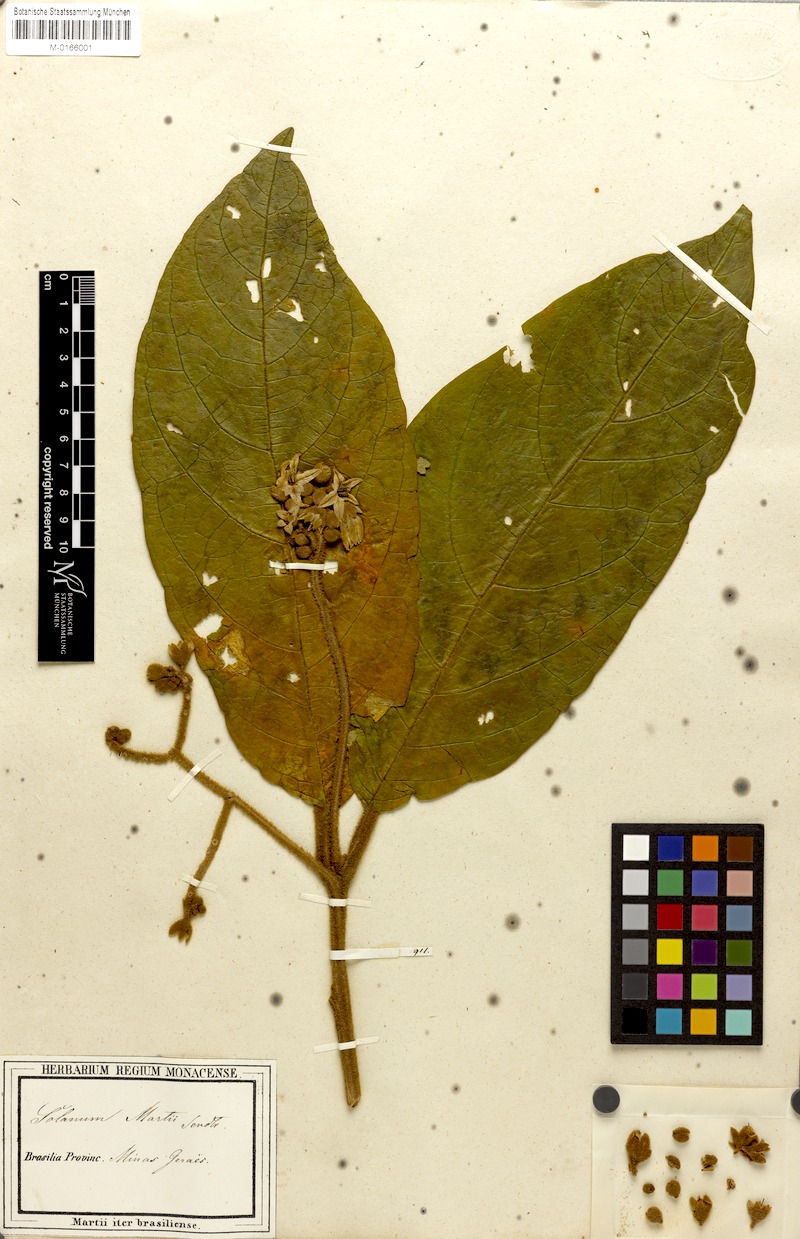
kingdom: Plantae
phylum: Tracheophyta
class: Magnoliopsida
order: Solanales
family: Solanaceae
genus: Solanum
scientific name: Solanum martii
